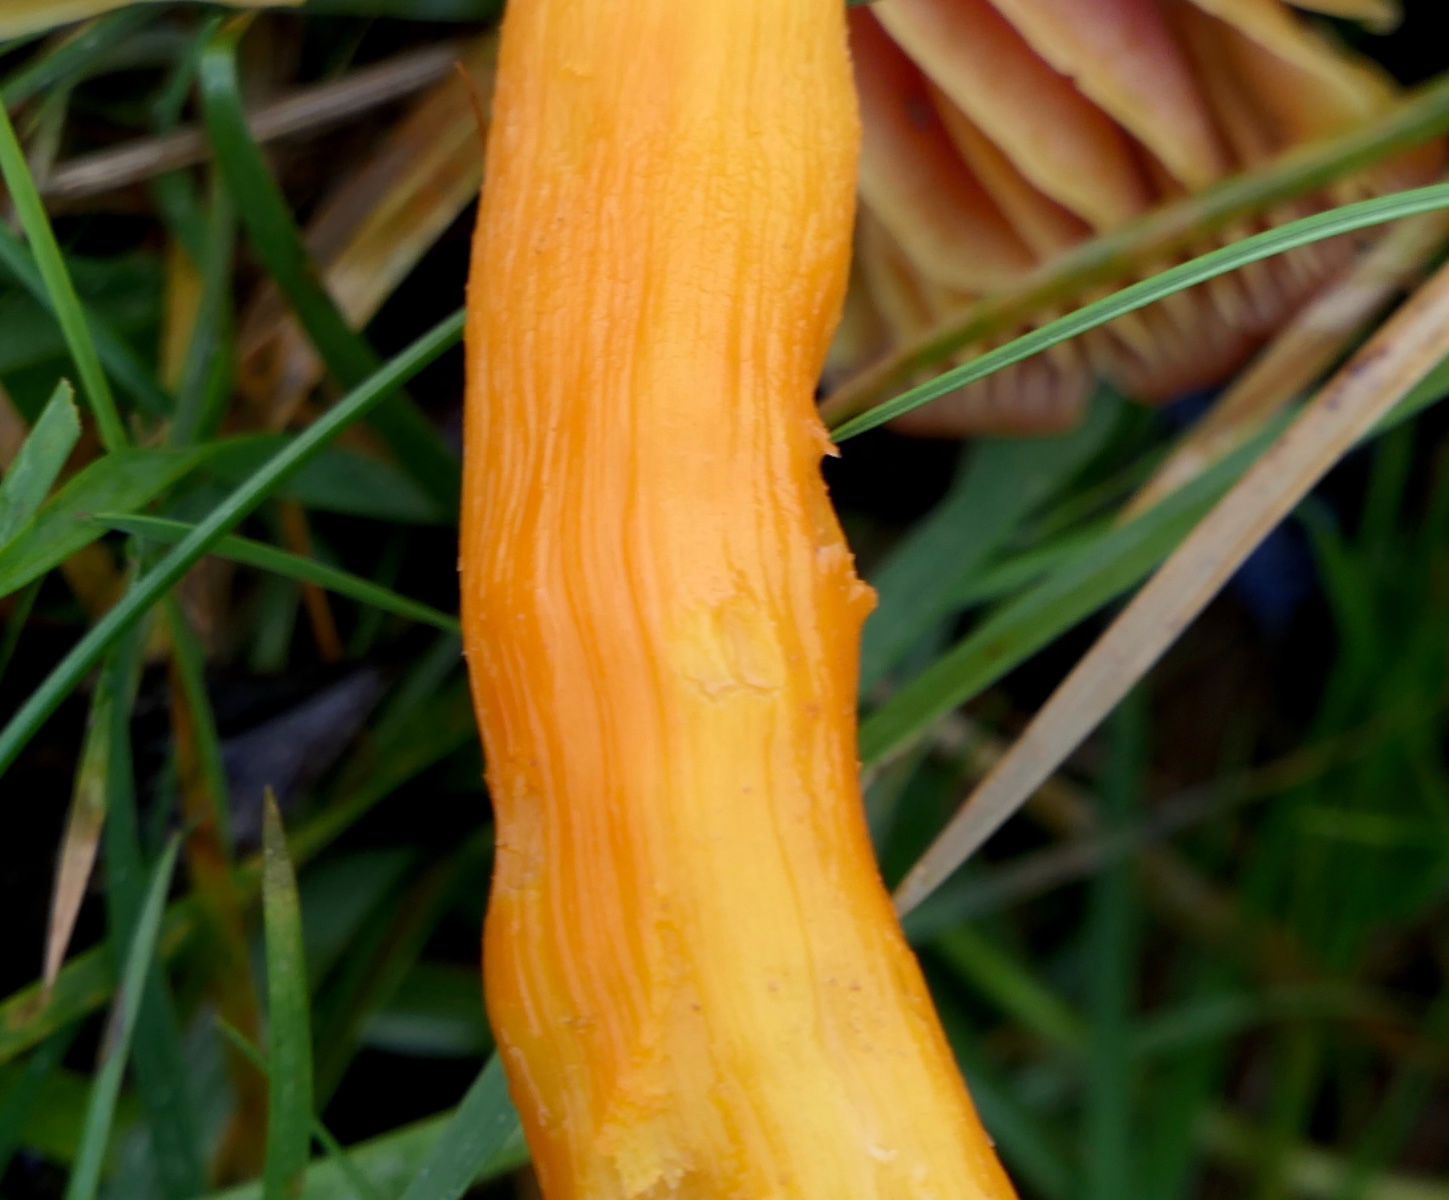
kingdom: Fungi
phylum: Basidiomycota
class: Agaricomycetes
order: Agaricales
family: Hygrophoraceae
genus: Hygrocybe
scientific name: Hygrocybe punicea
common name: skarlagen-vokshat
